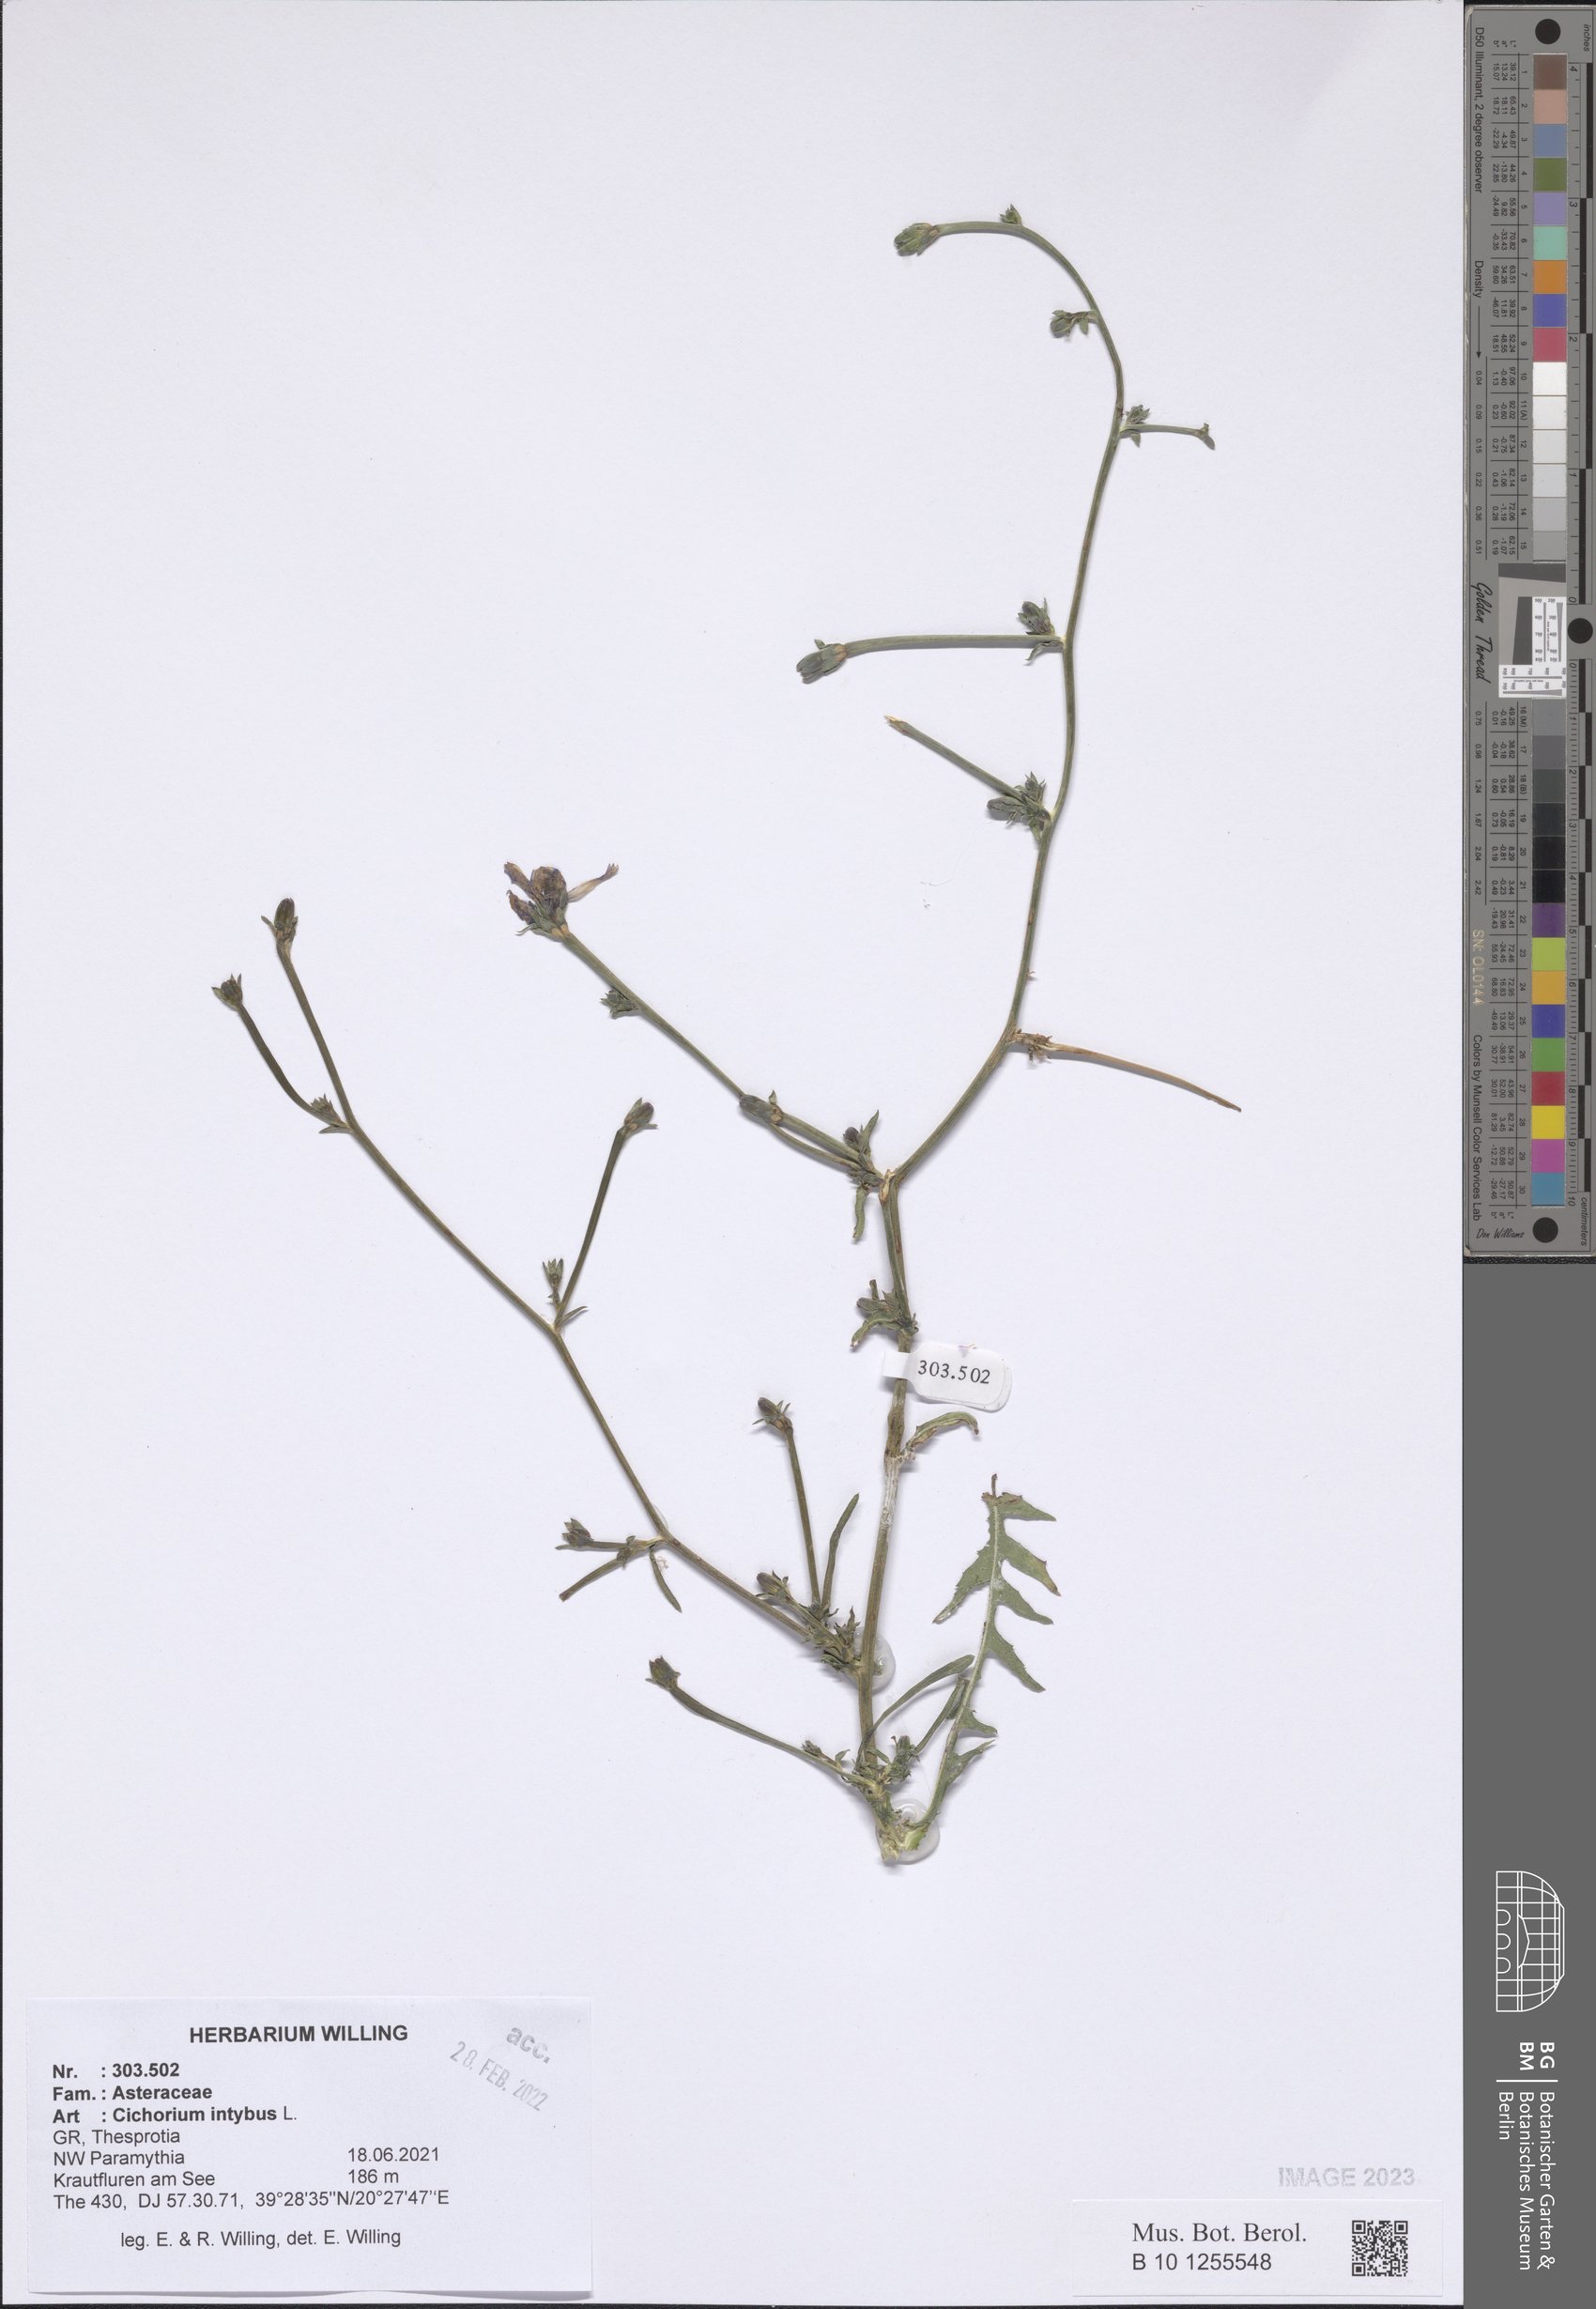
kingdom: Plantae
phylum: Tracheophyta
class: Magnoliopsida
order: Asterales
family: Asteraceae
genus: Cichorium
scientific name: Cichorium intybus
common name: Chicory
